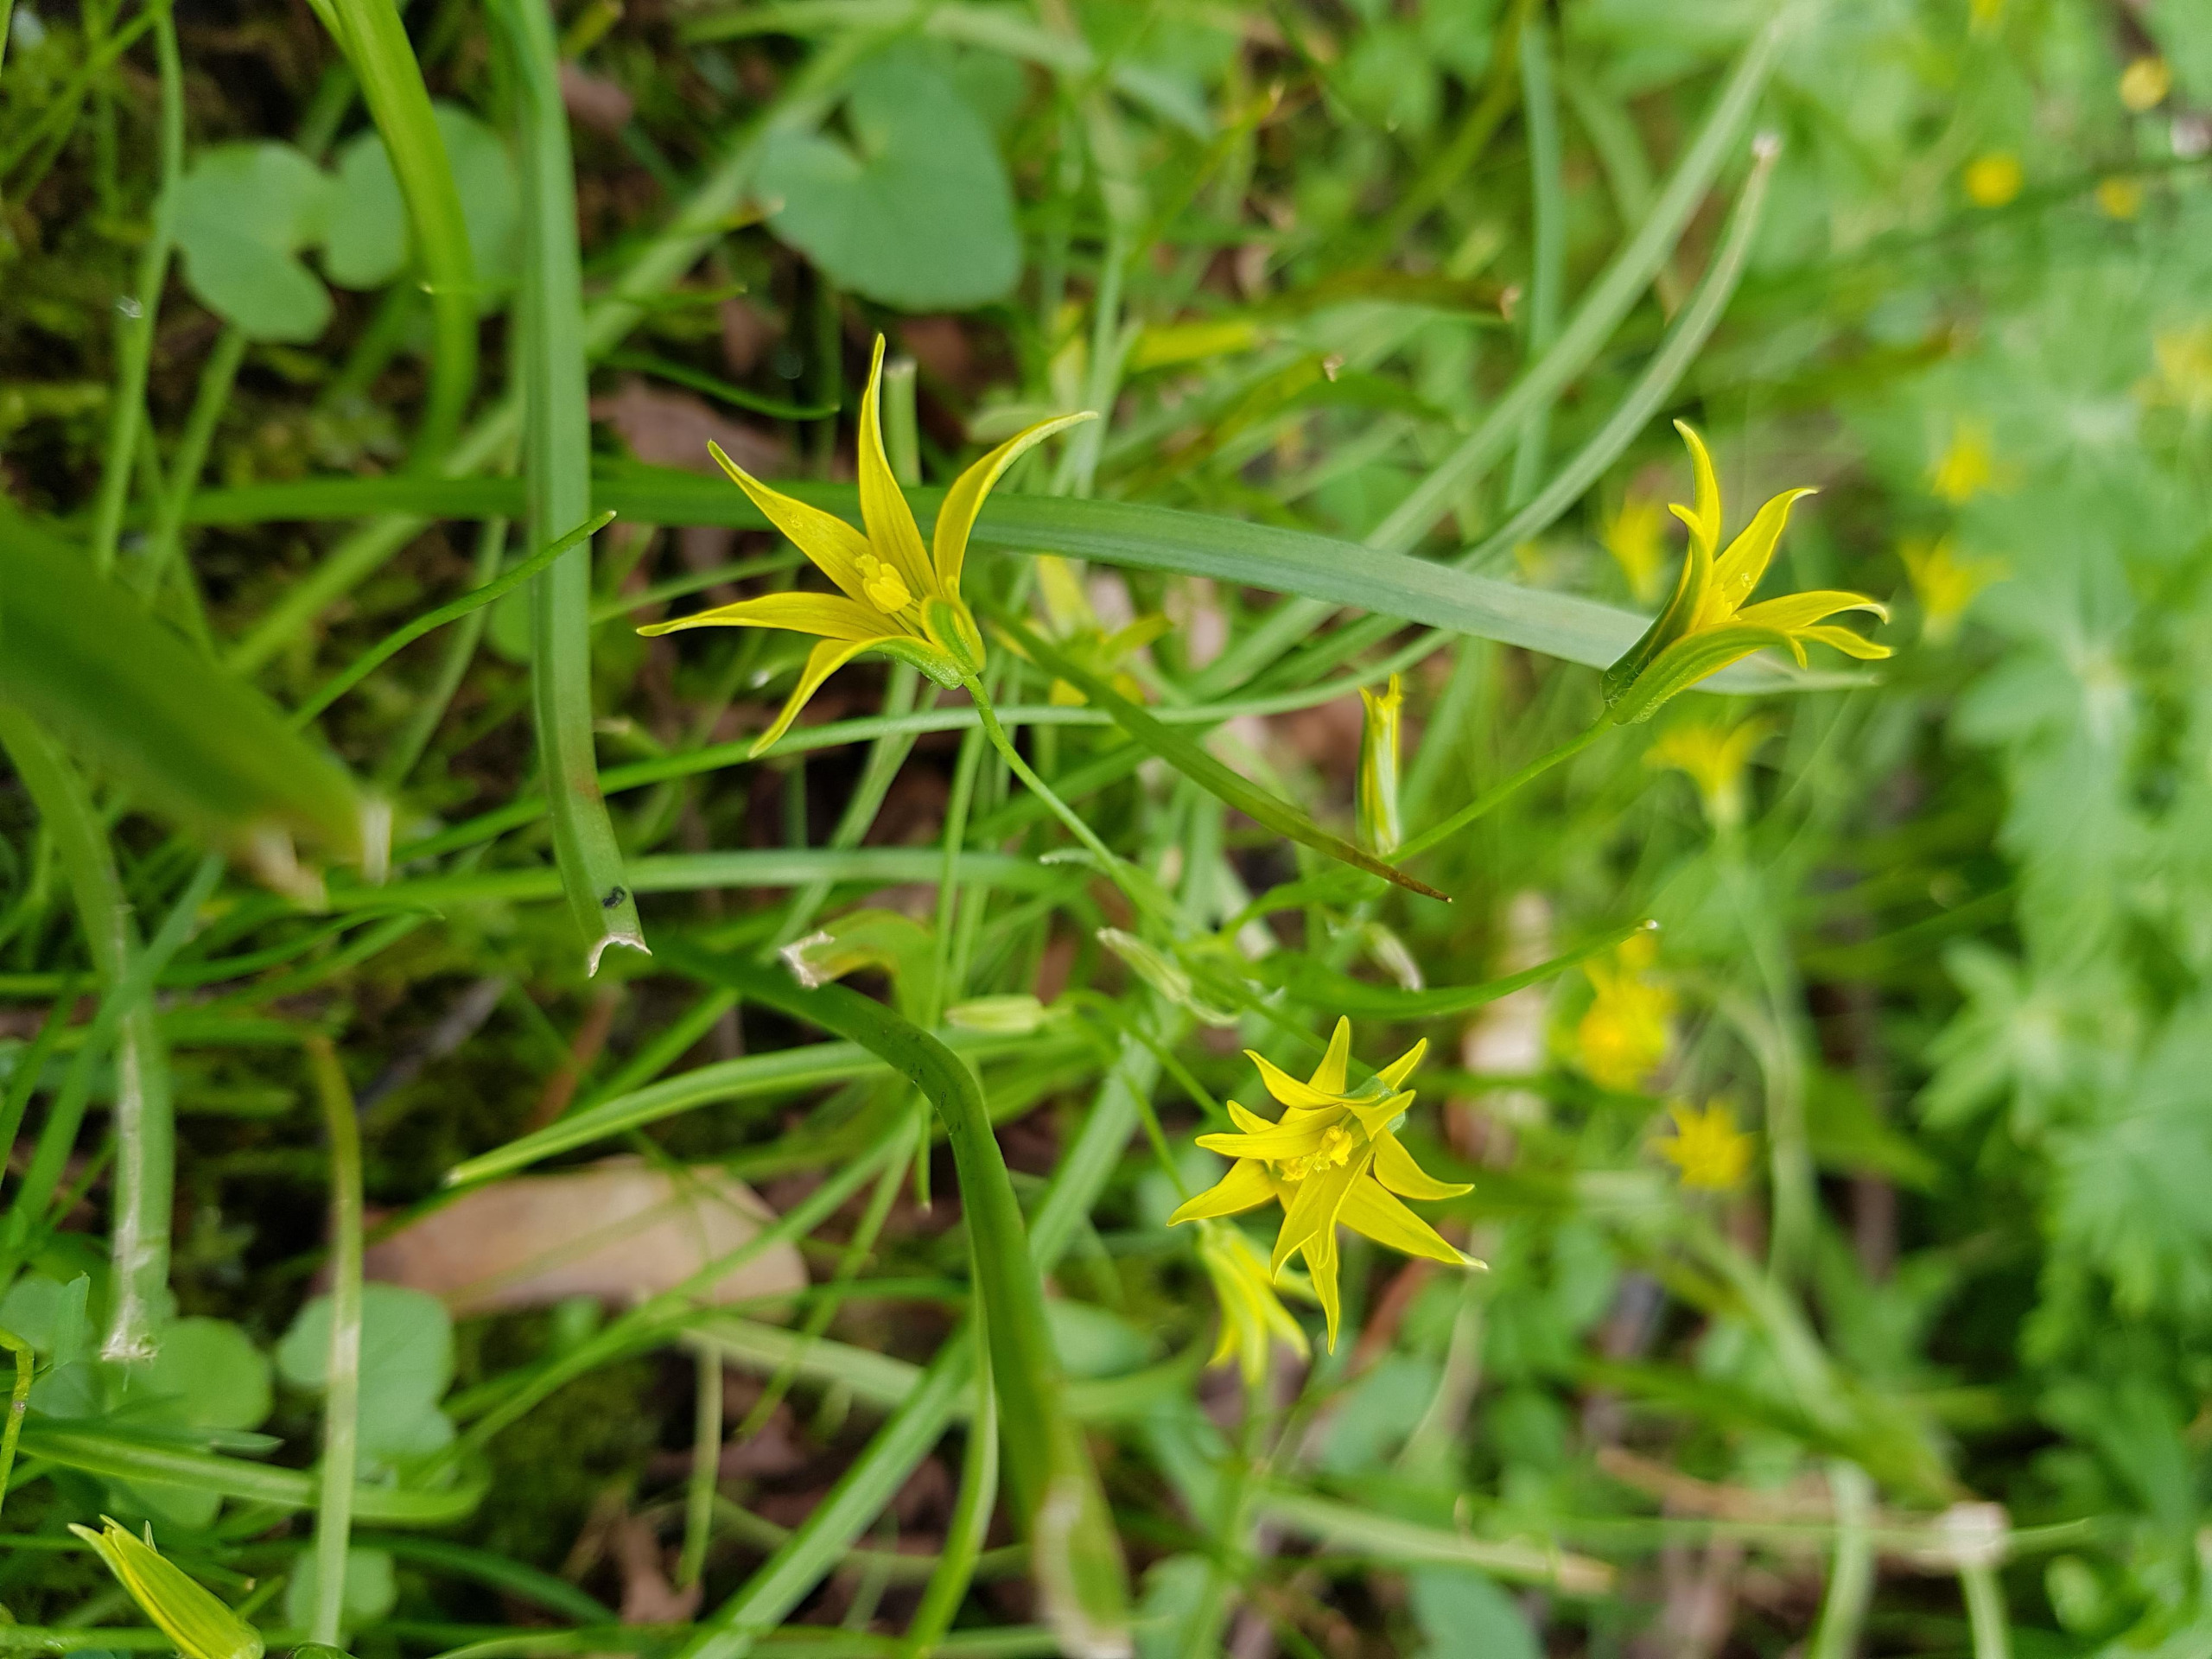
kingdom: Plantae
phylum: Tracheophyta
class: Liliopsida
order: Liliales
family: Liliaceae
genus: Gagea
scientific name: Gagea minima
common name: Liden guldstjerne
